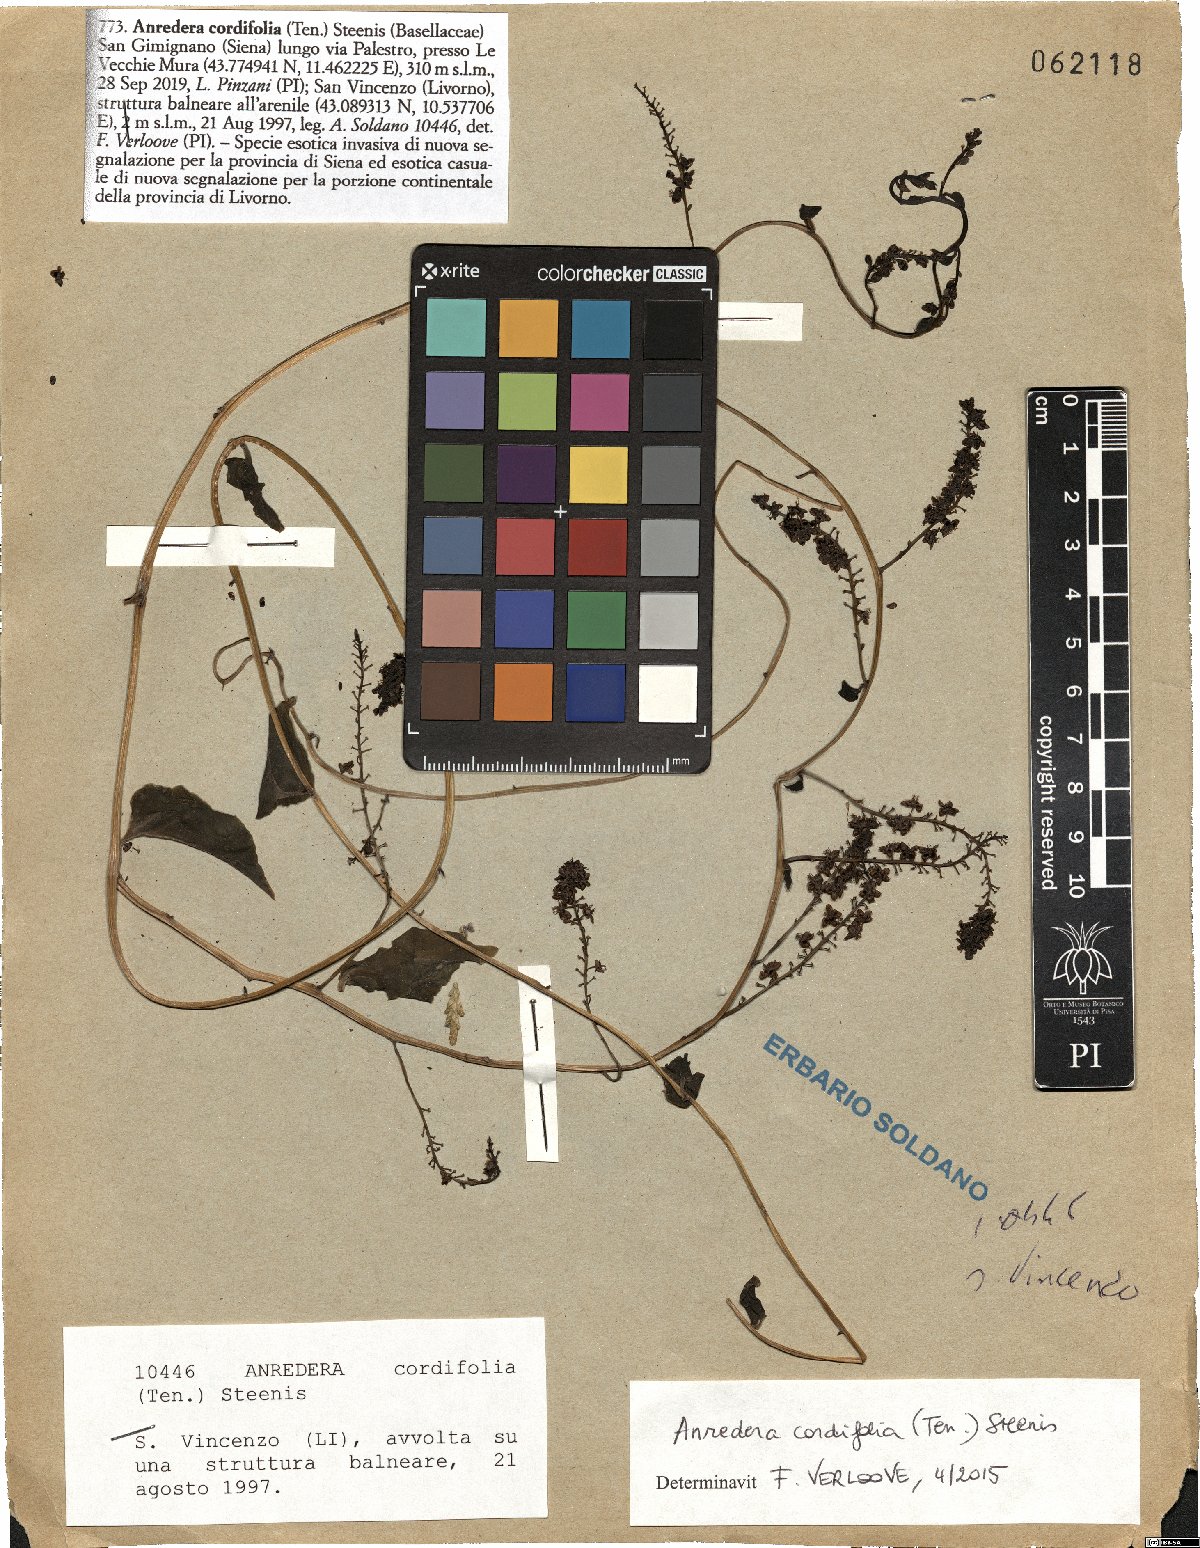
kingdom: Plantae
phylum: Tracheophyta
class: Magnoliopsida
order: Caryophyllales
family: Basellaceae
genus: Anredera
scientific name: Anredera cordifolia
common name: Heartleaf madeiravine
